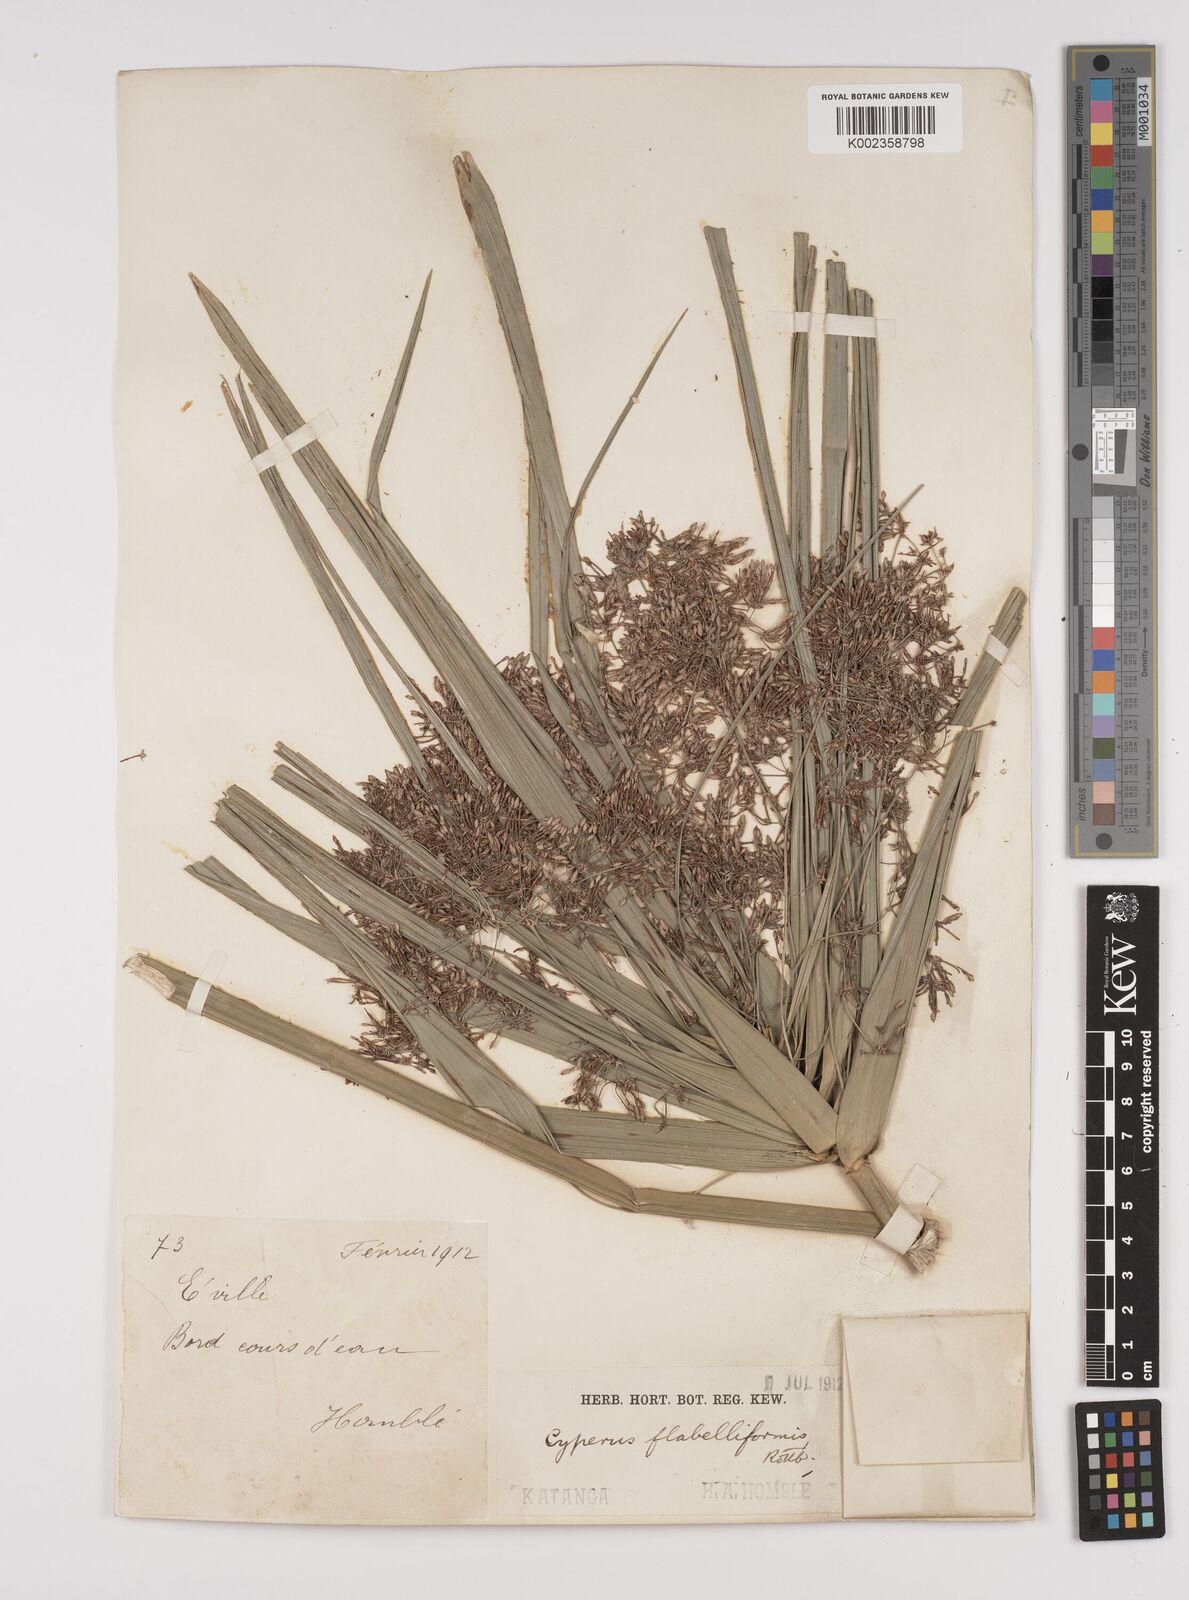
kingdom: Plantae
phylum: Tracheophyta
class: Liliopsida
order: Poales
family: Cyperaceae
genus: Cyperus
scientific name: Cyperus alternifolius
